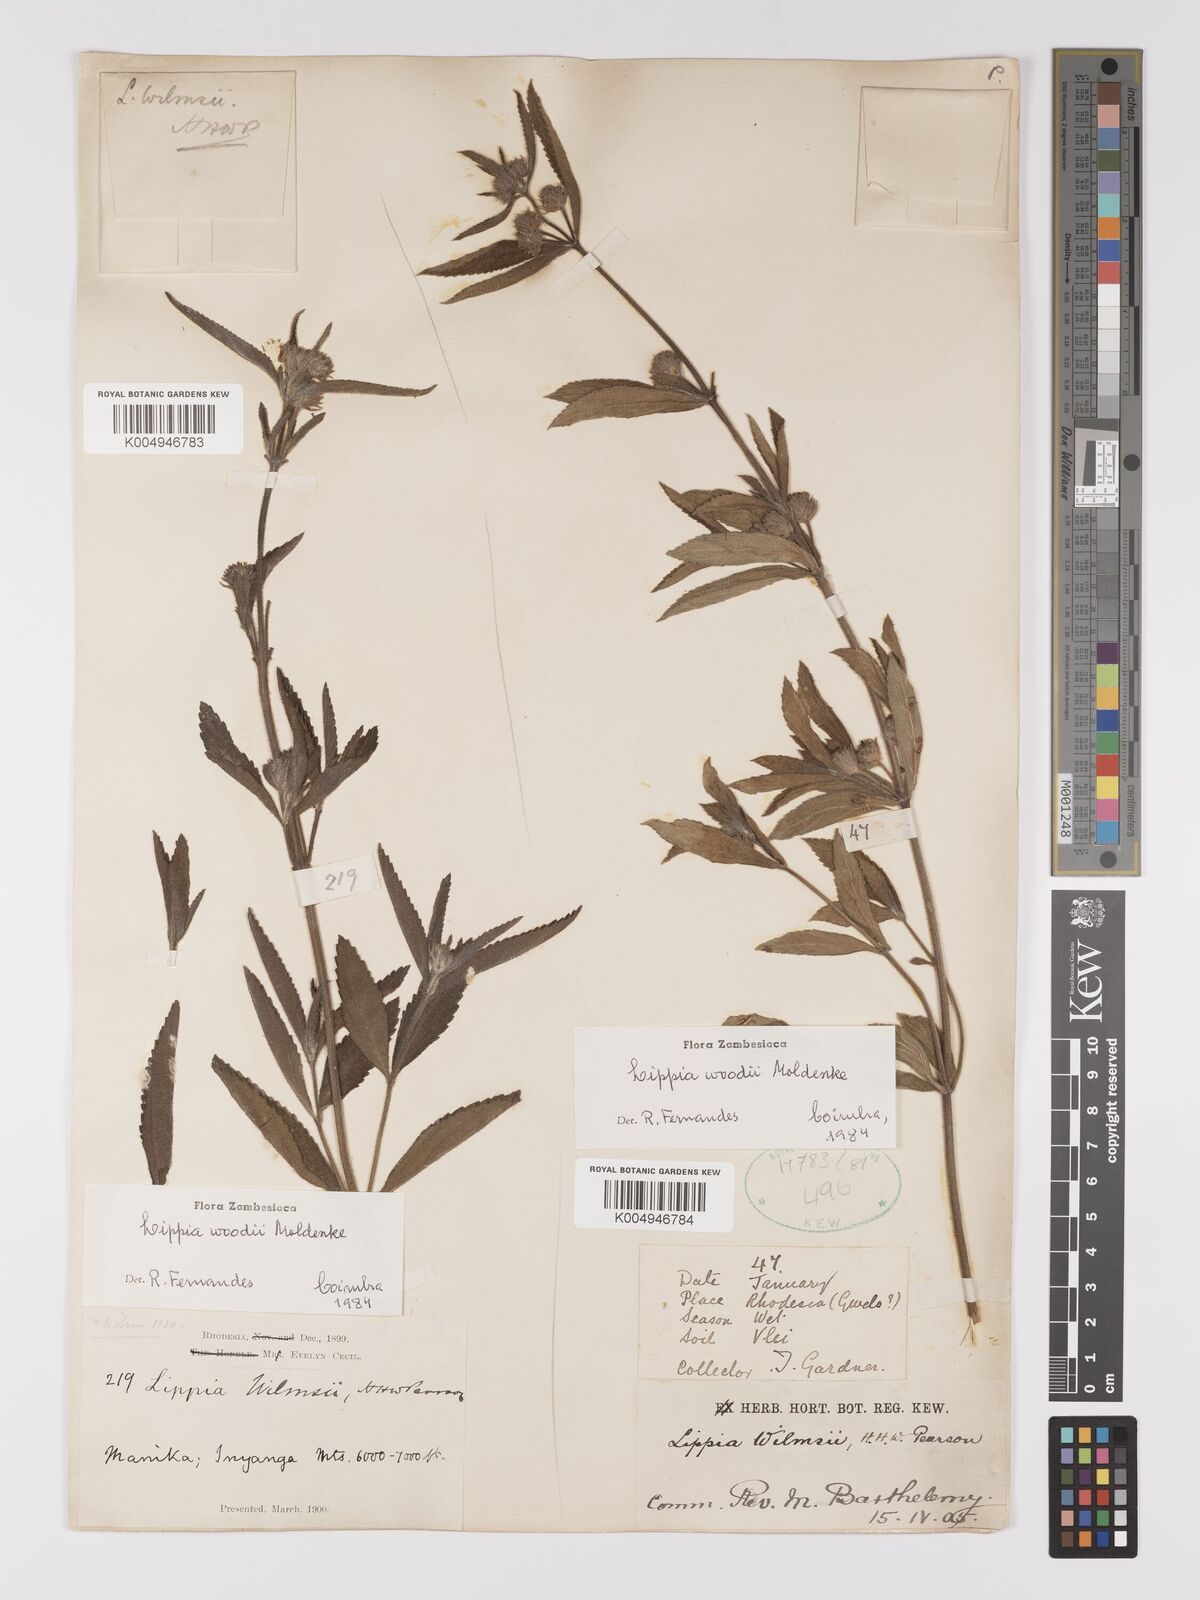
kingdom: Plantae
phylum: Tracheophyta
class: Magnoliopsida
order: Lamiales
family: Verbenaceae
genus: Lippia
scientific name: Lippia woodii
